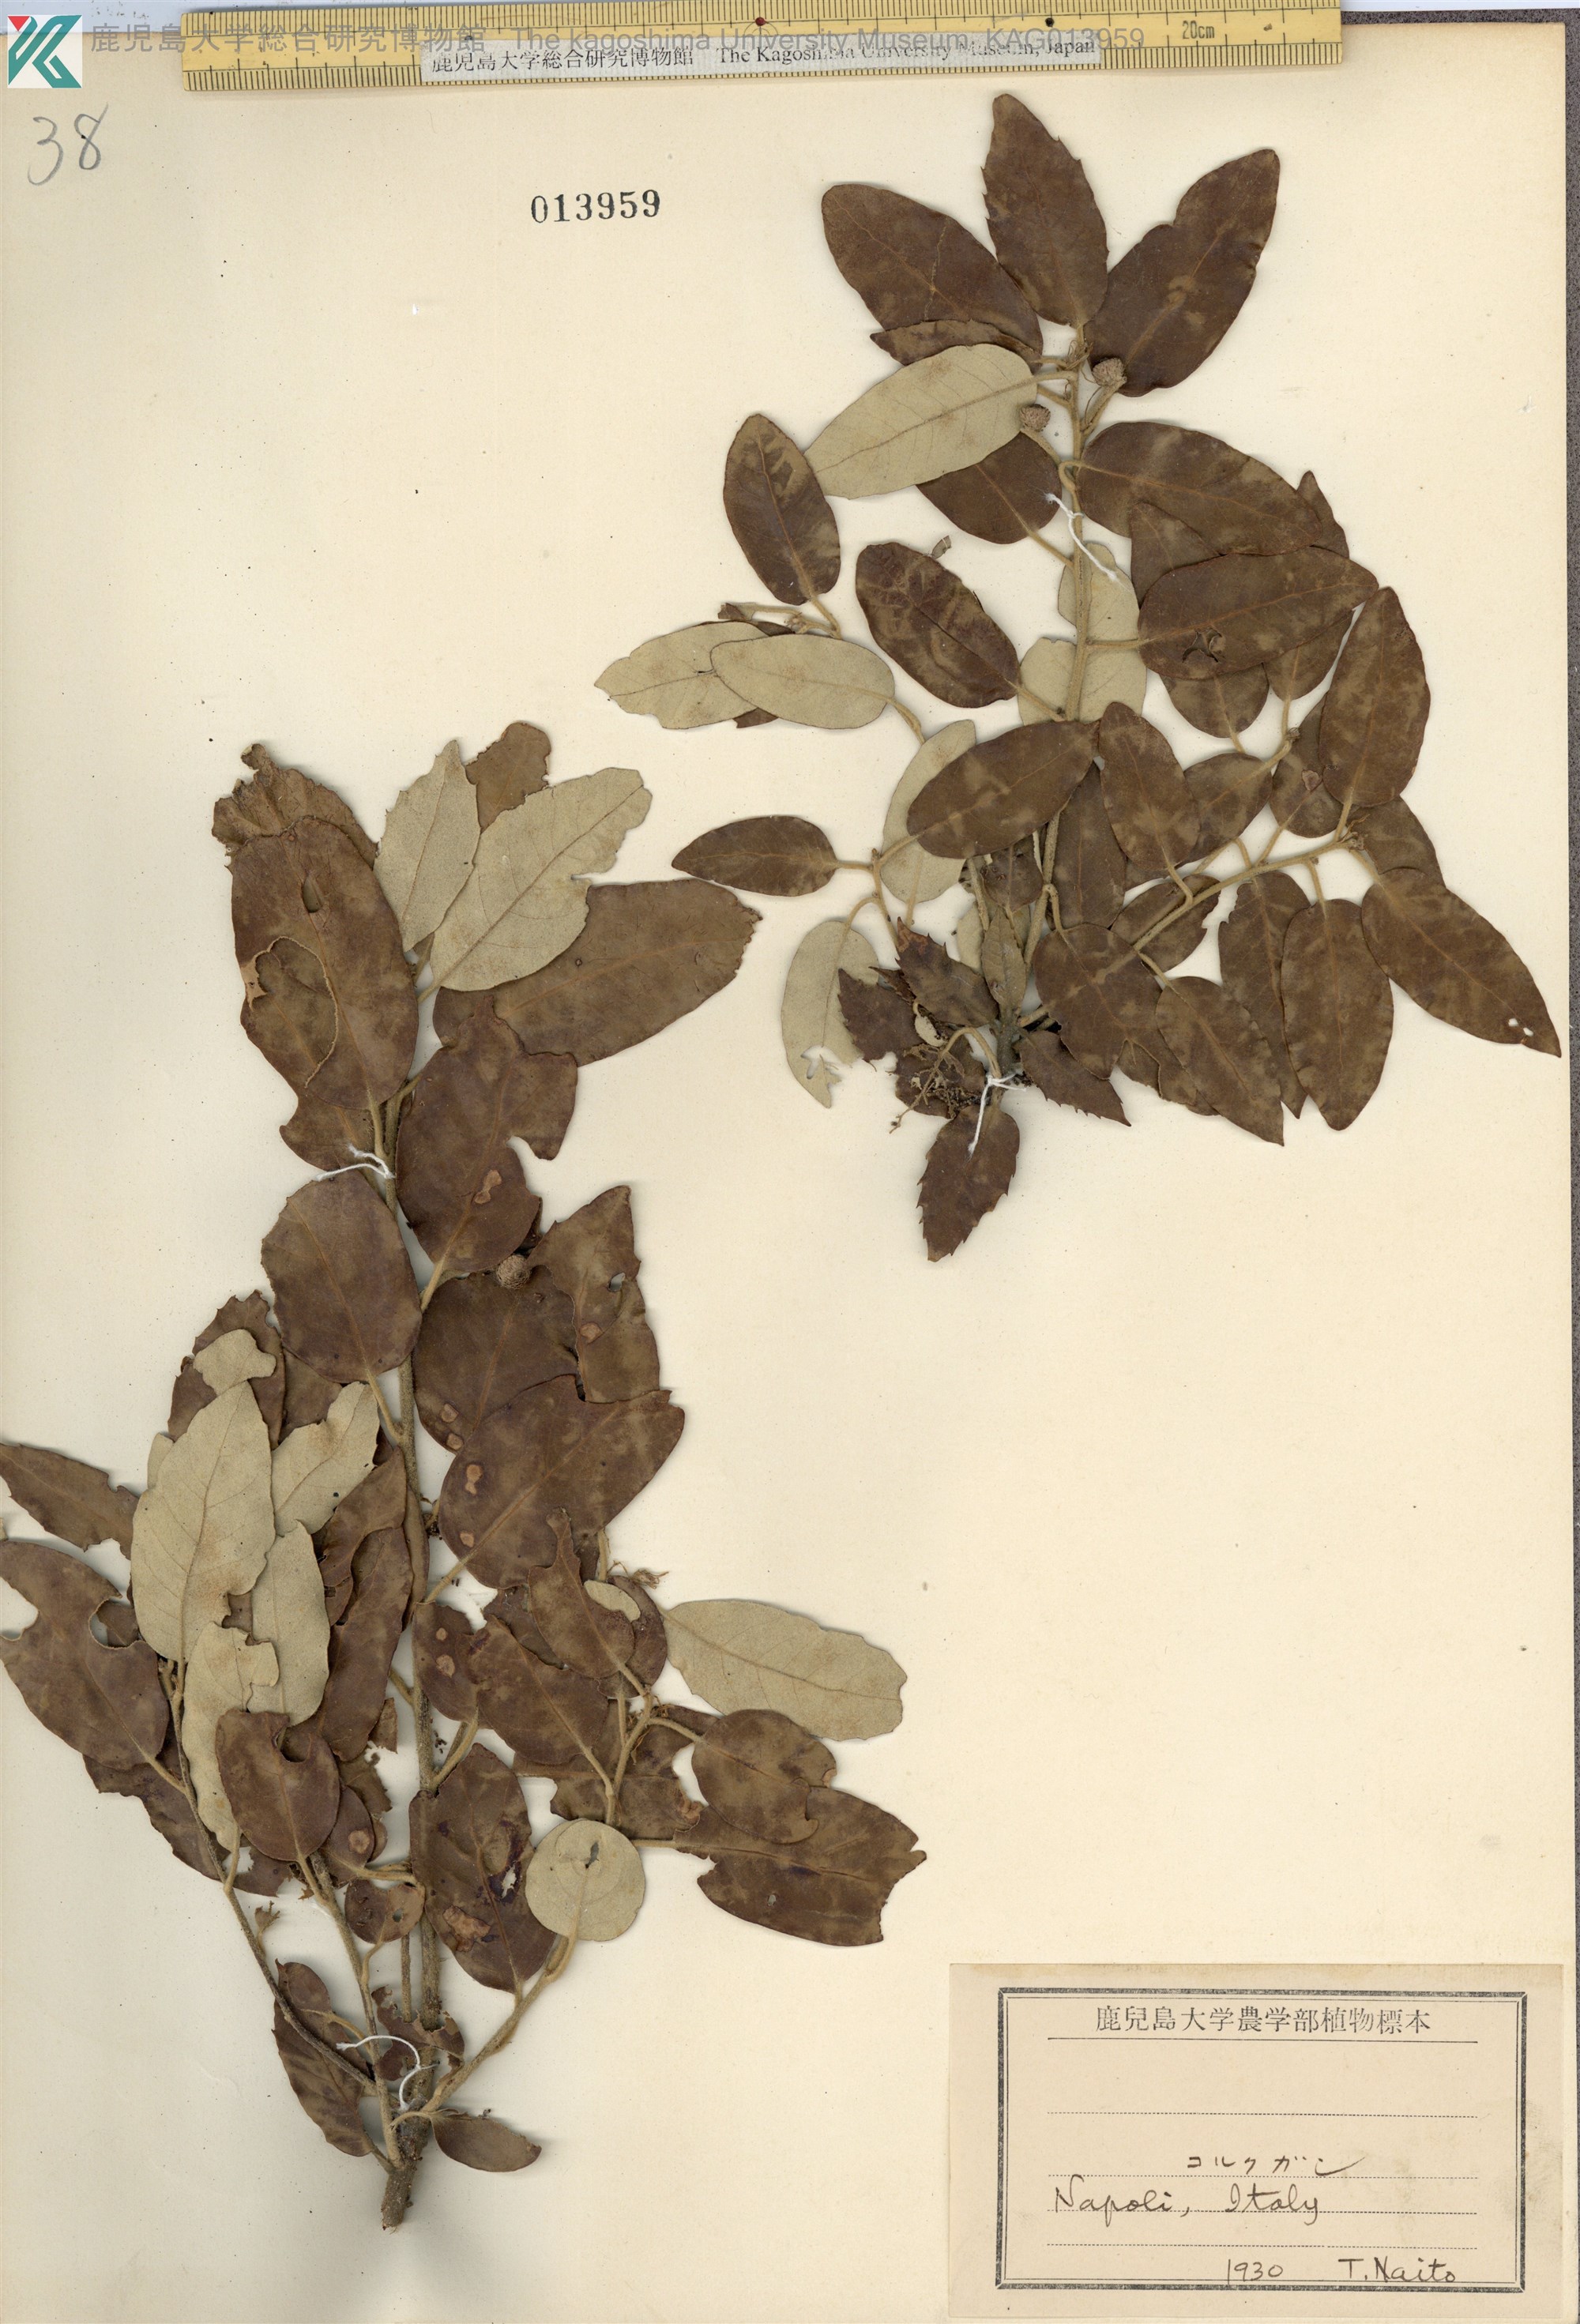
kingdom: Plantae
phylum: Tracheophyta
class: Magnoliopsida
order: Fagales
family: Fagaceae
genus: Quercus
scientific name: Quercus suber
